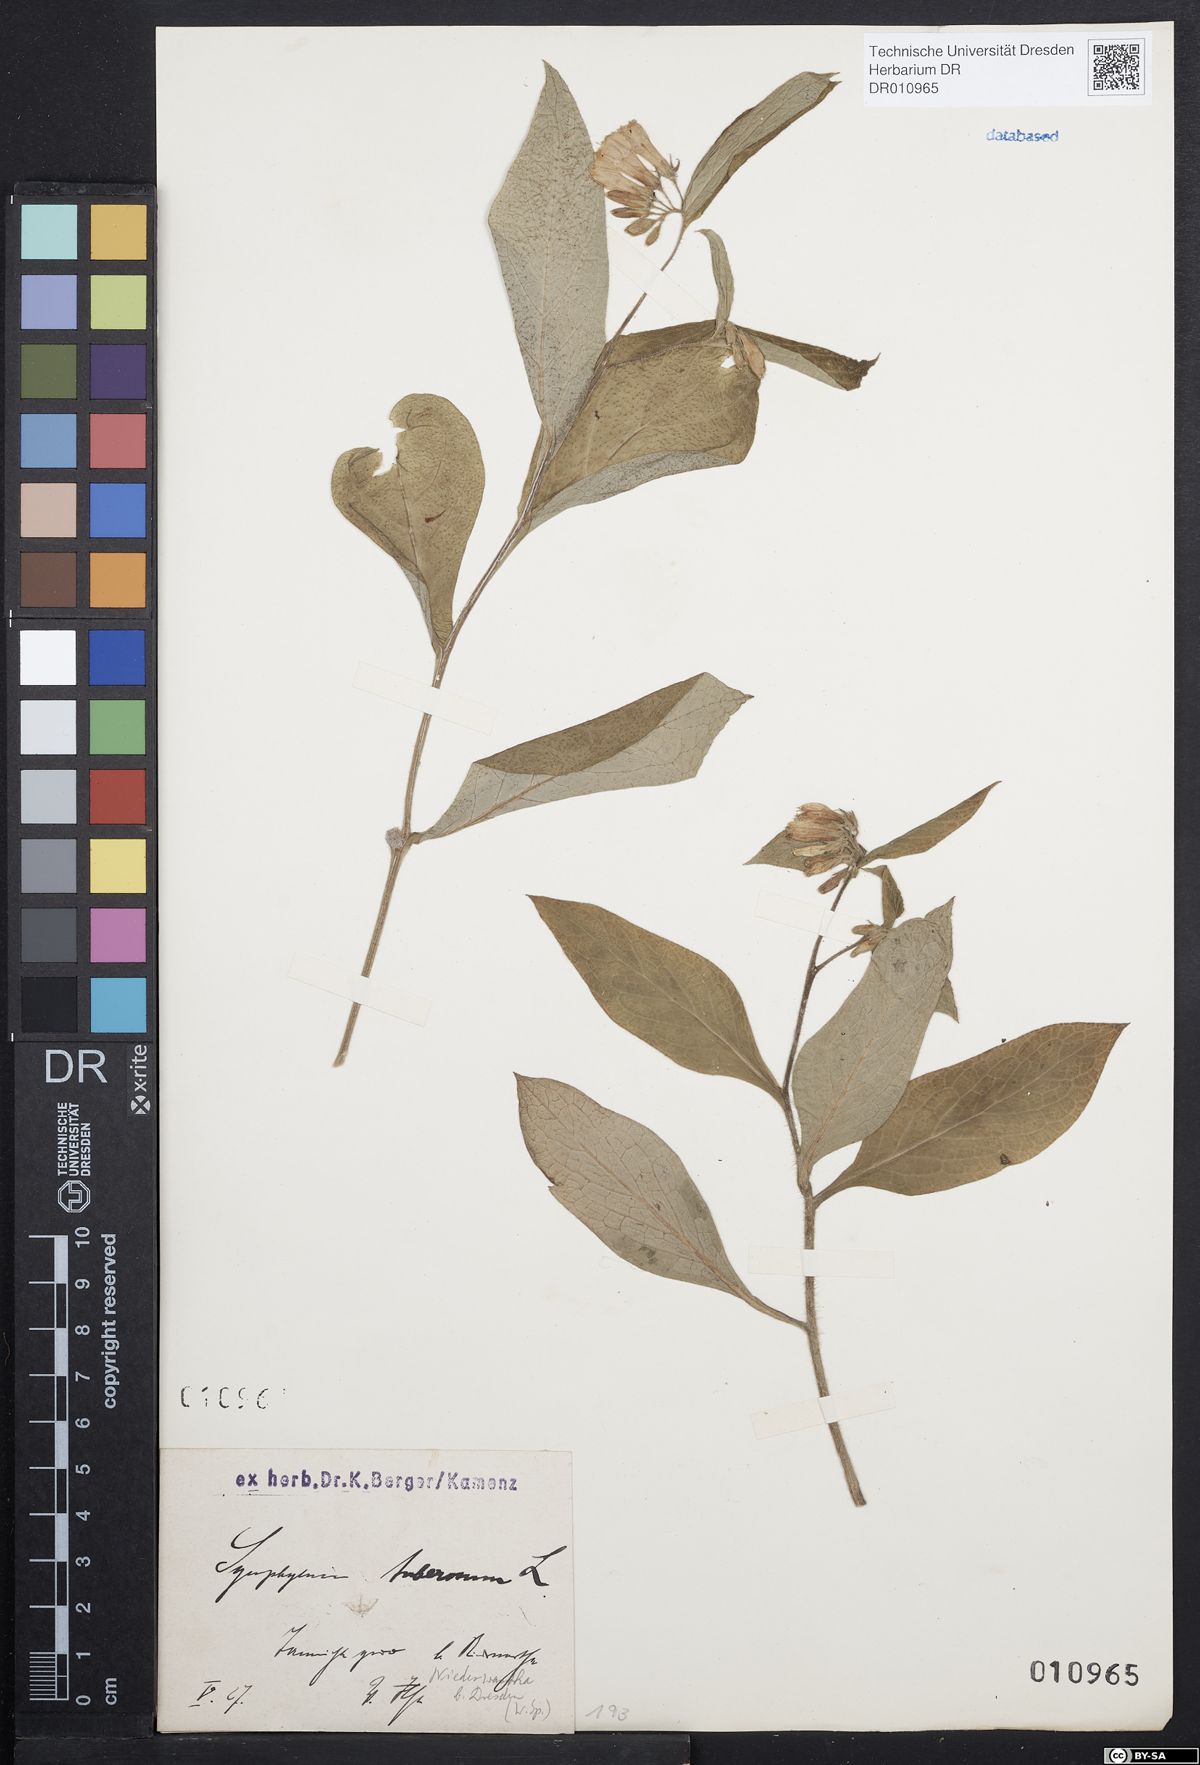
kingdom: Plantae
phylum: Tracheophyta
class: Magnoliopsida
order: Boraginales
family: Boraginaceae
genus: Symphytum
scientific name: Symphytum tuberosum
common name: Tuberous comfrey
